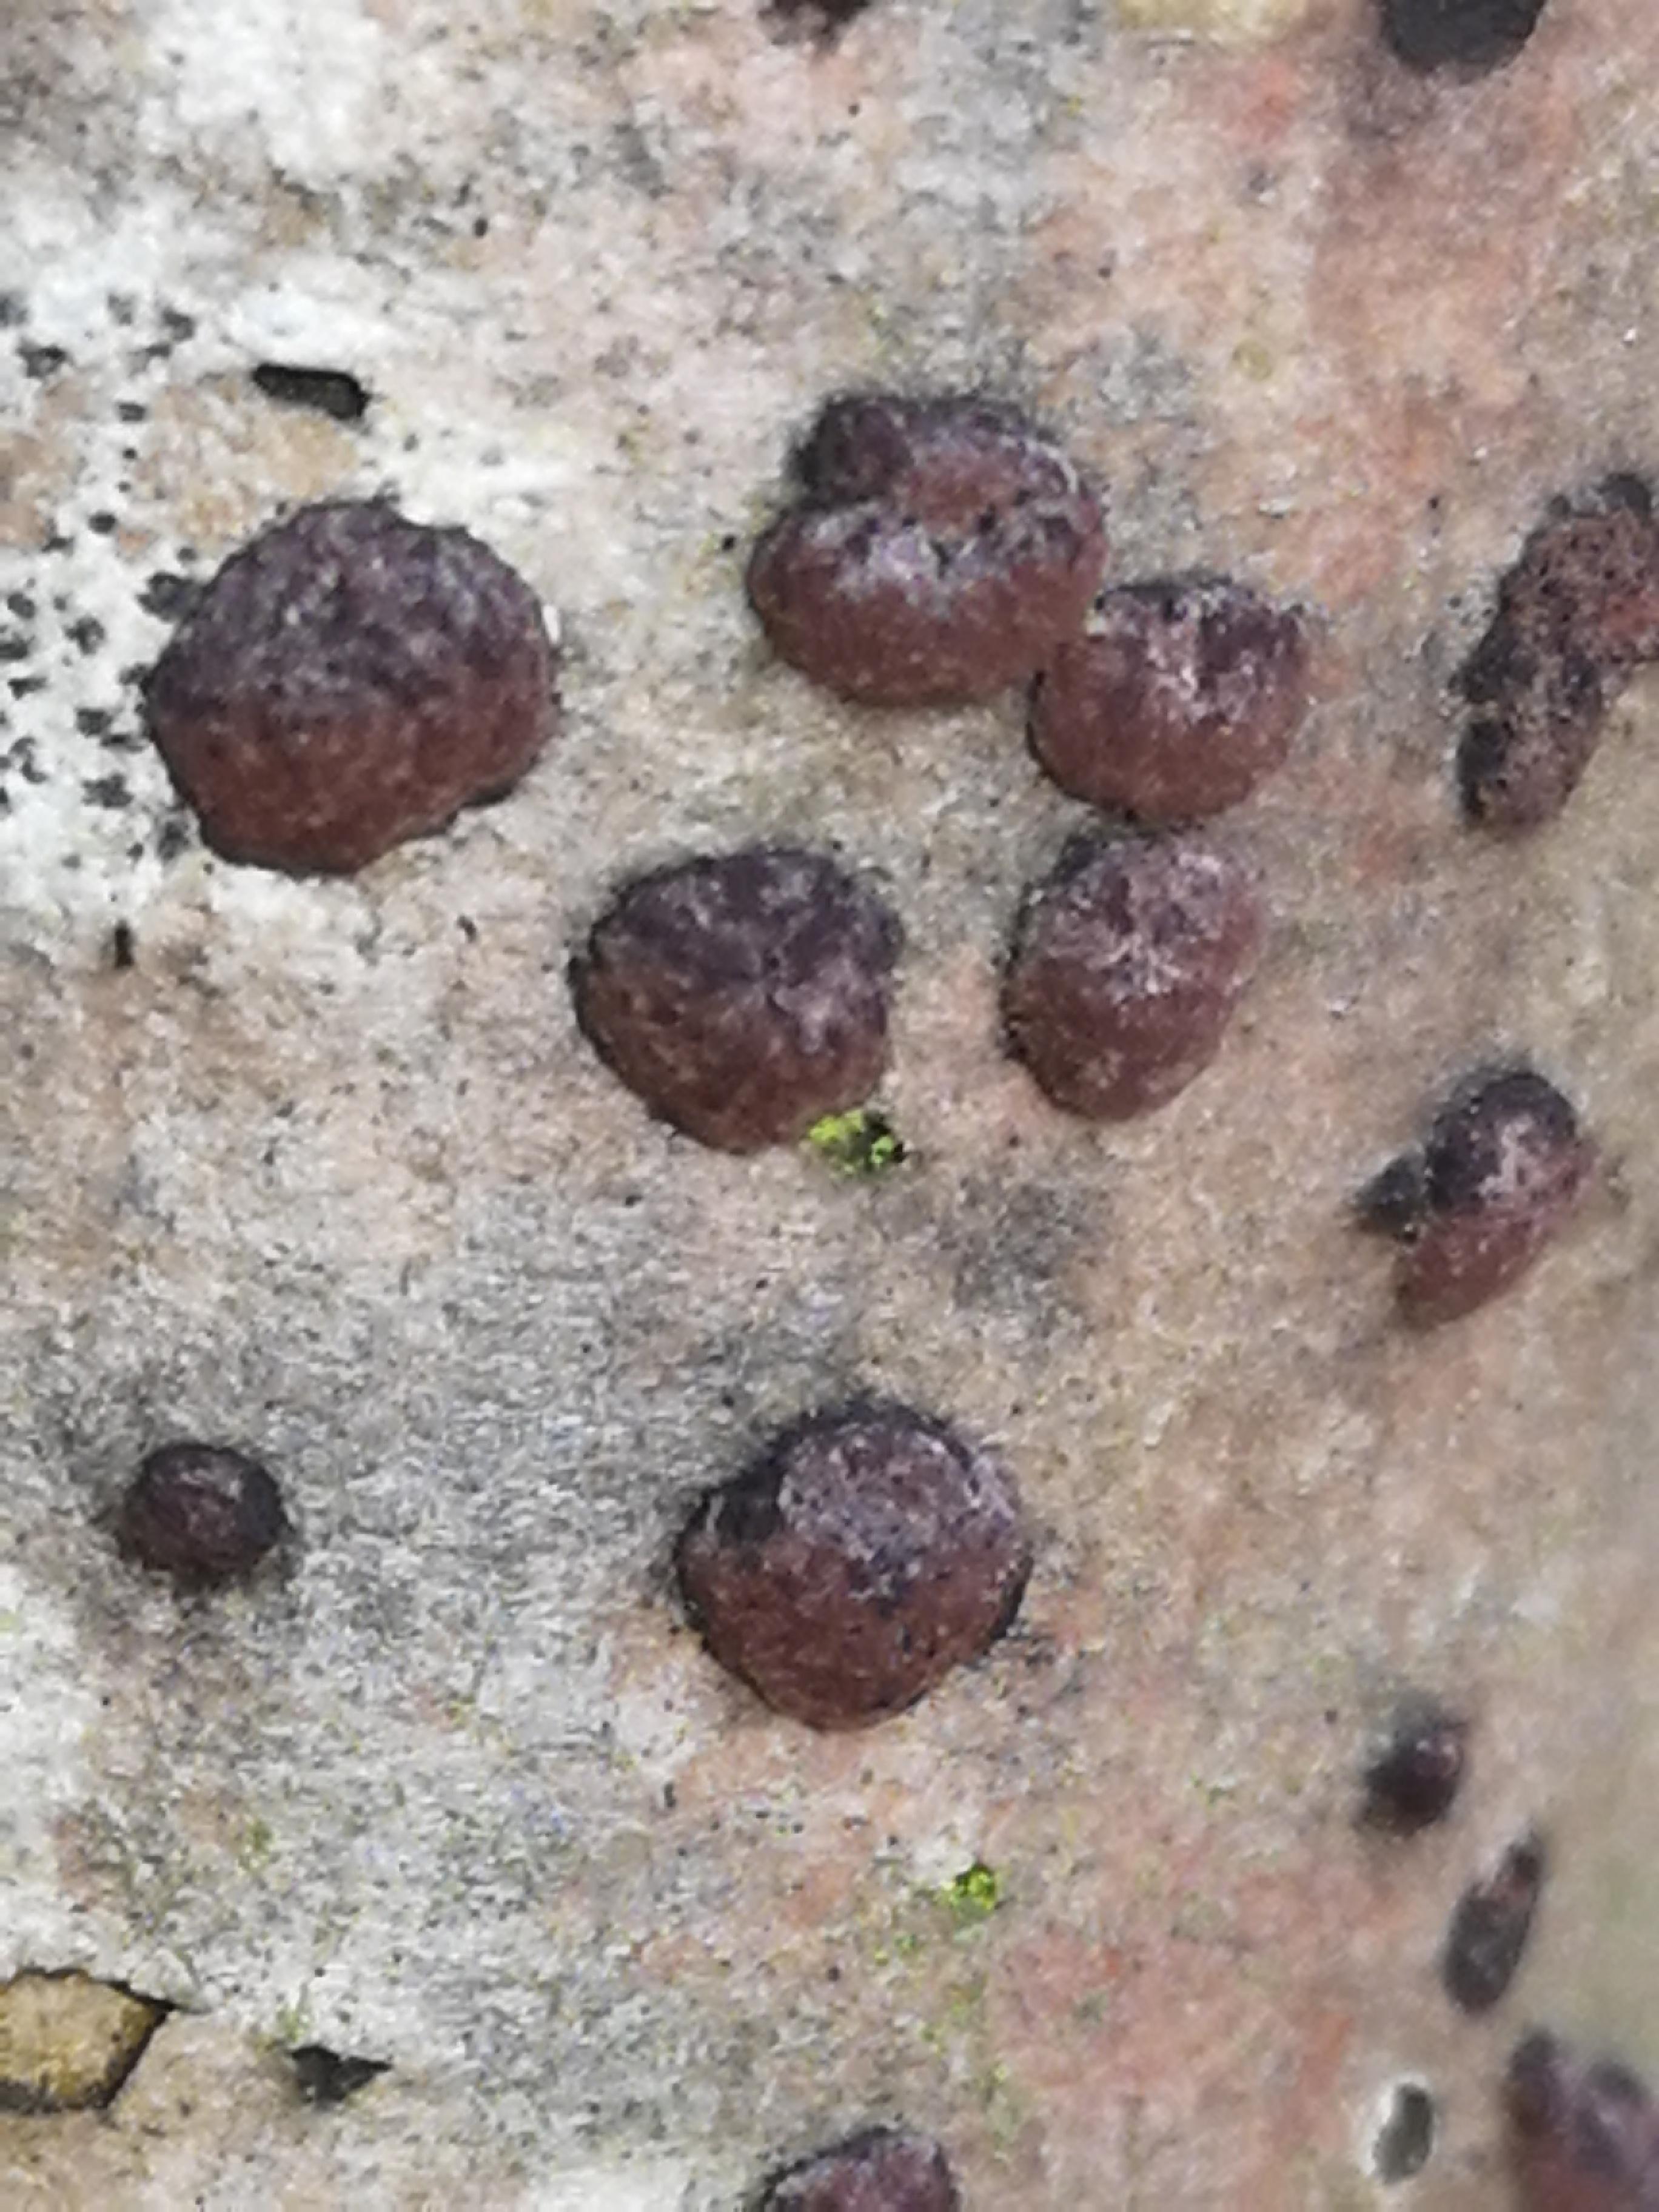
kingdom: Fungi
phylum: Ascomycota
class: Sordariomycetes
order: Xylariales
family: Hypoxylaceae
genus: Hypoxylon
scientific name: Hypoxylon fuscum
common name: kegleformet kulbær
